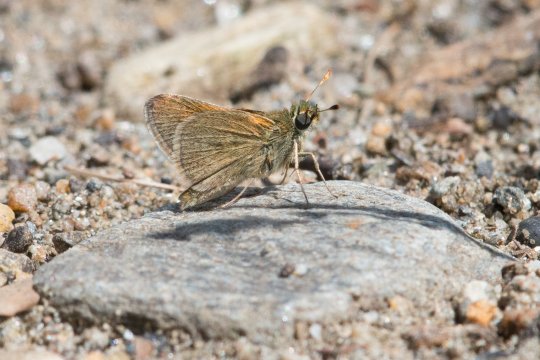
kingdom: Animalia
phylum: Arthropoda
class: Insecta
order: Lepidoptera
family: Hesperiidae
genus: Polites
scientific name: Polites themistocles
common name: Tawny-edged Skipper
